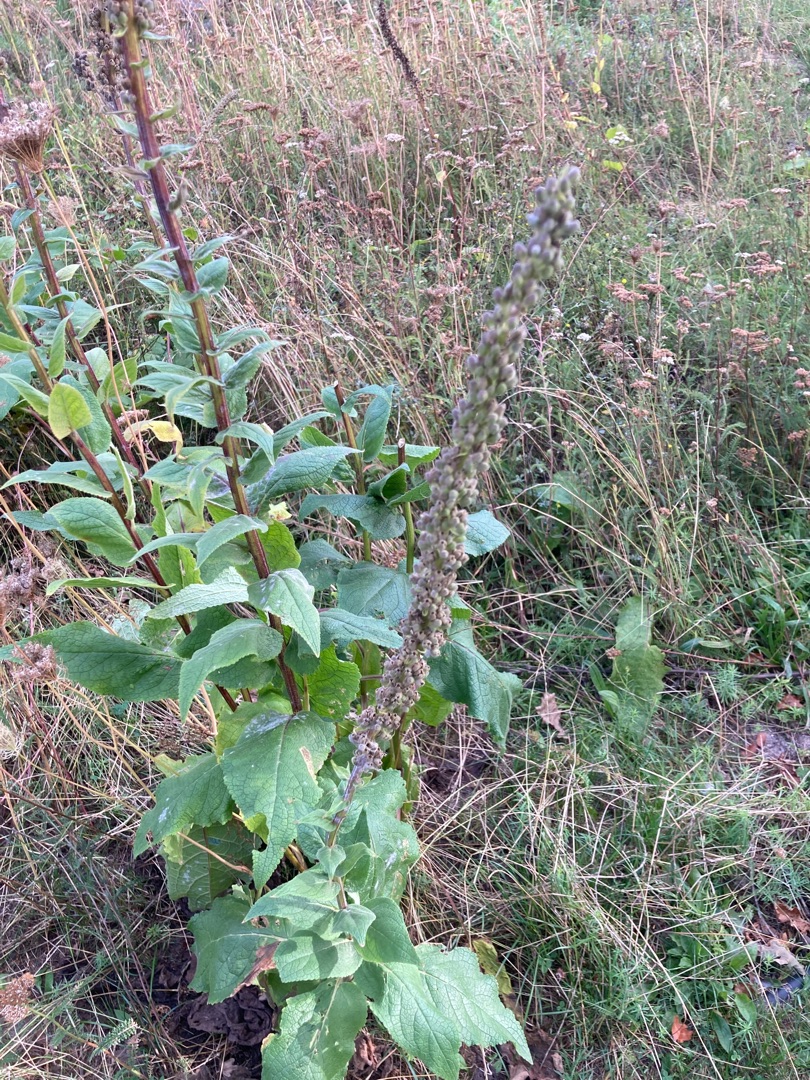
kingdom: Plantae
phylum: Tracheophyta
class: Magnoliopsida
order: Lamiales
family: Scrophulariaceae
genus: Verbascum
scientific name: Verbascum nigrum
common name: Mørk kongelys
